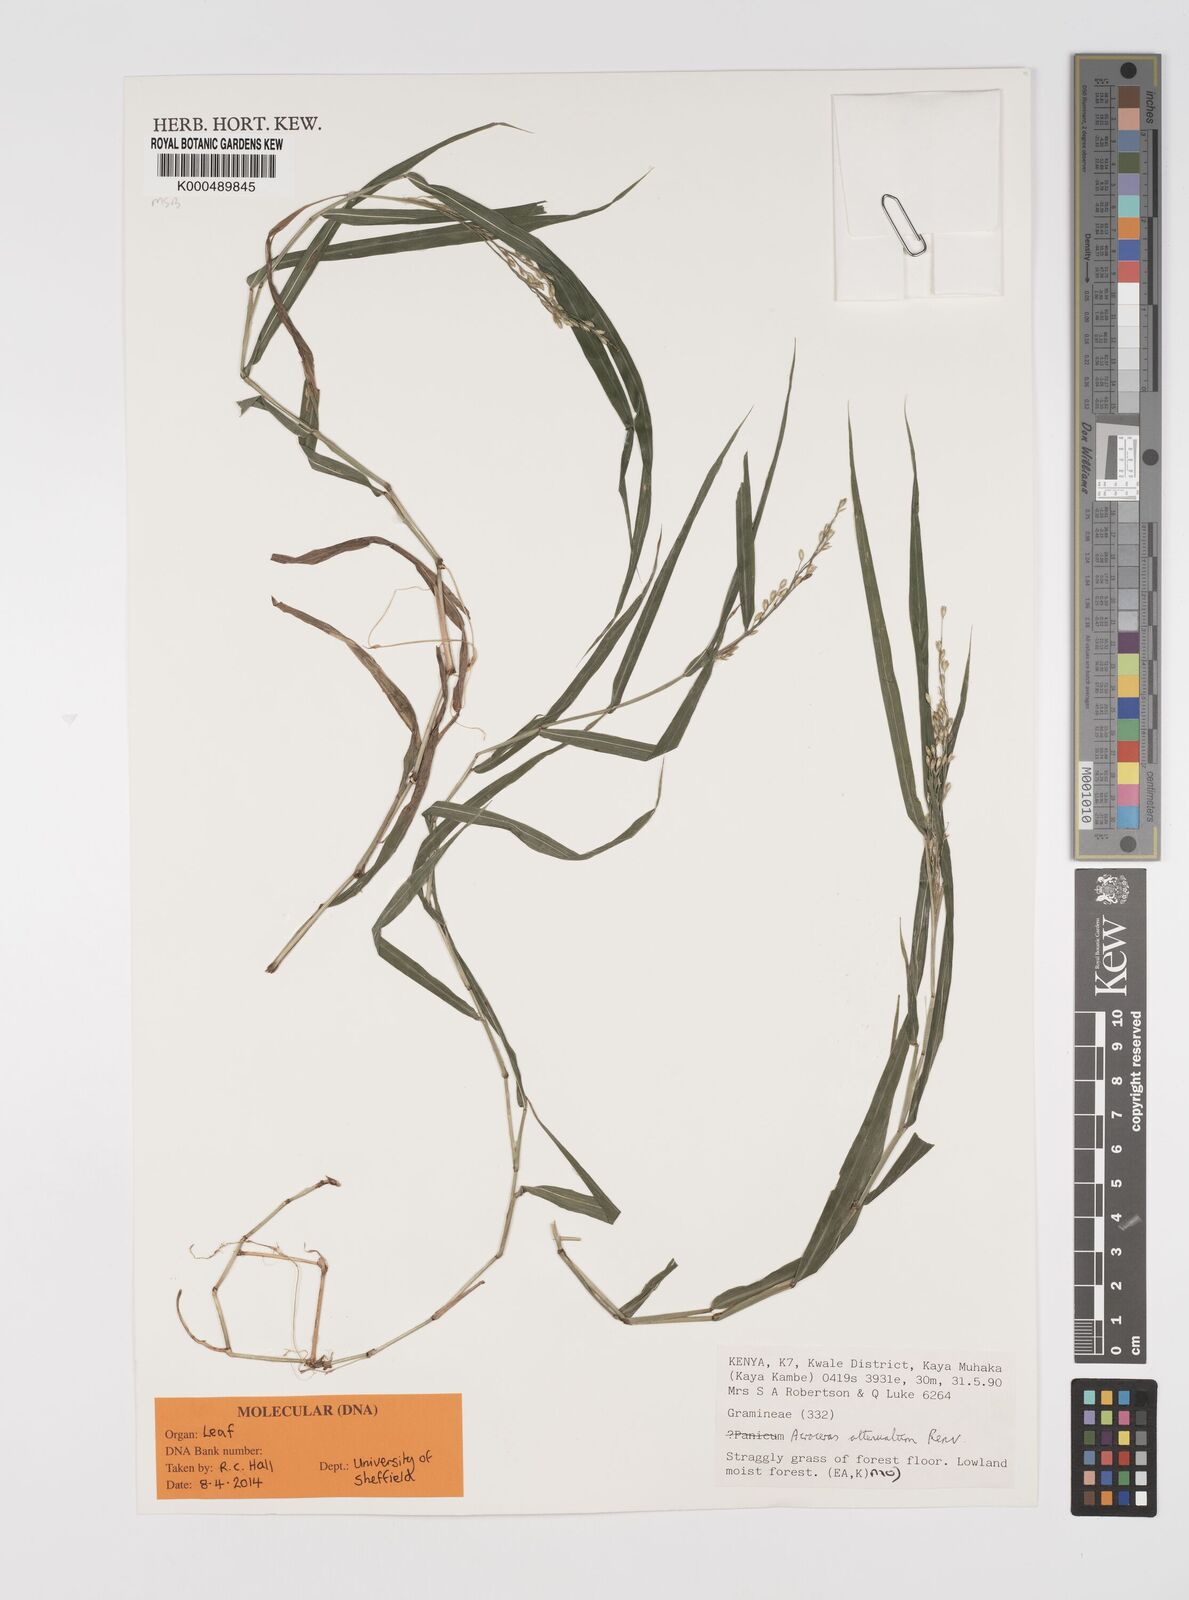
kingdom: Plantae
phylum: Tracheophyta
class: Liliopsida
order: Poales
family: Poaceae
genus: Acroceras
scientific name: Acroceras attenuatum
